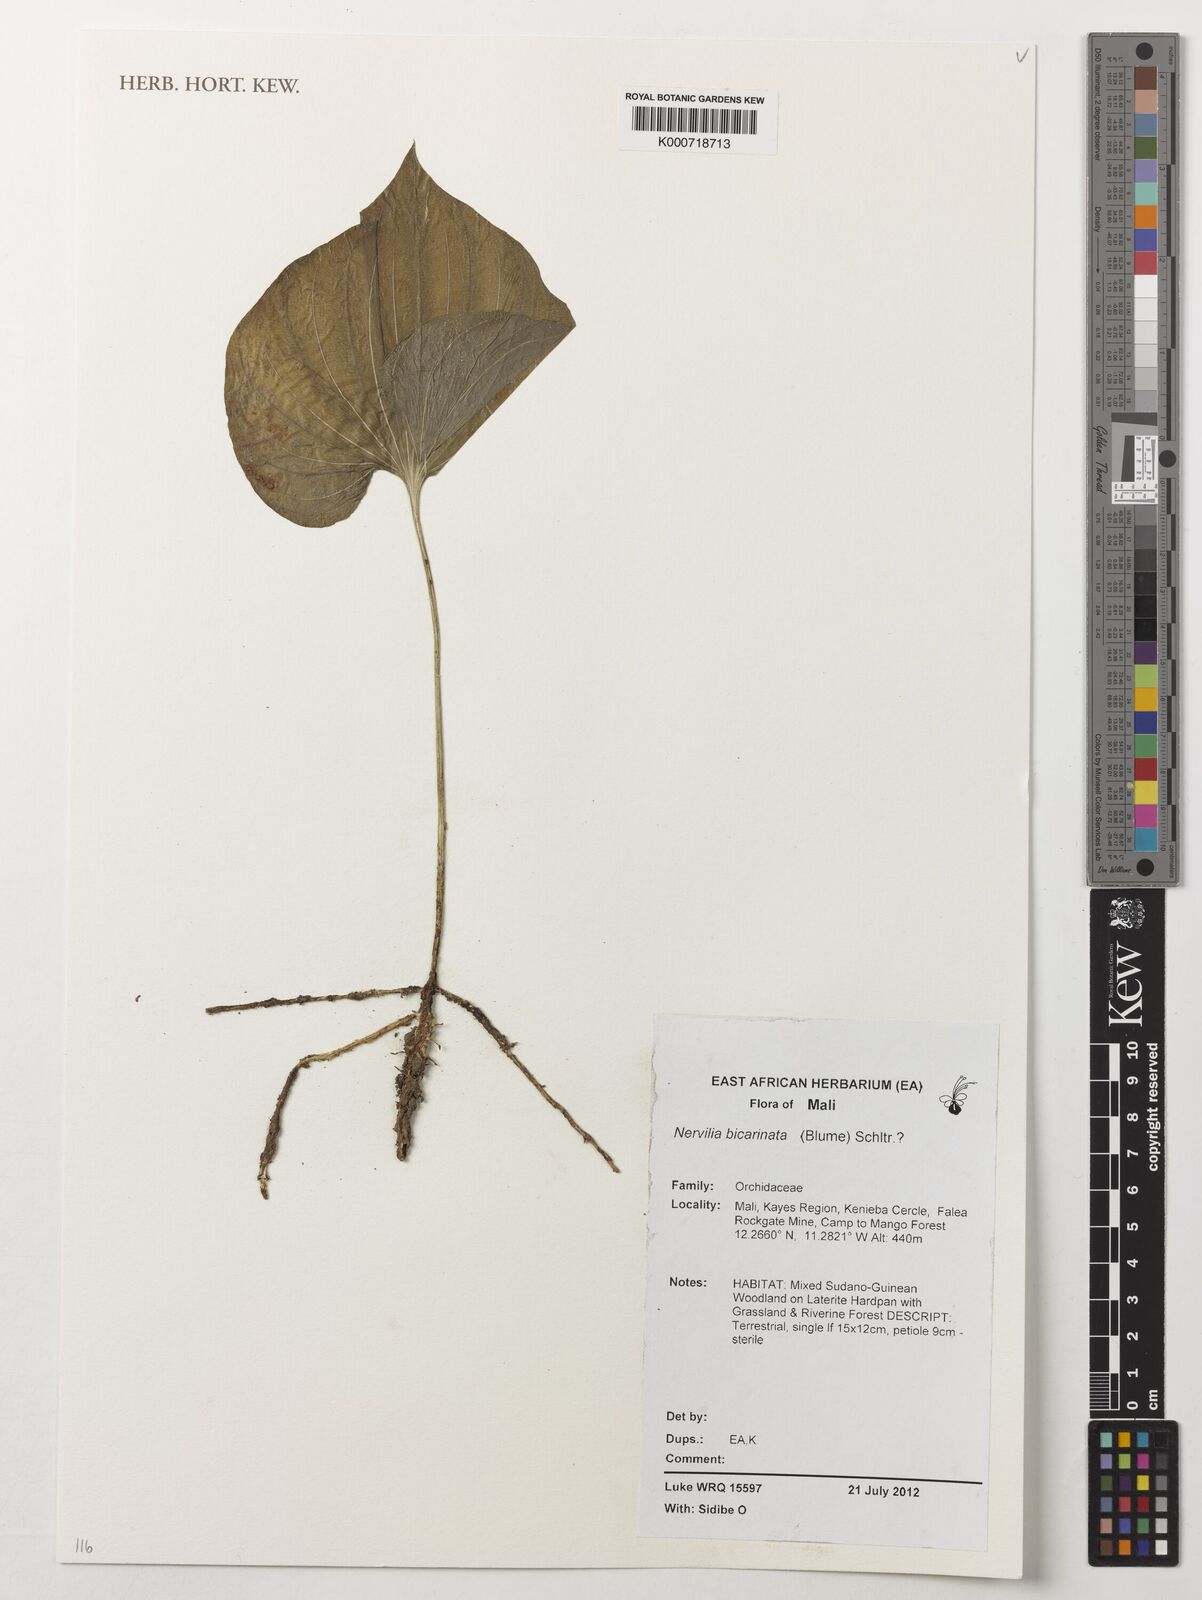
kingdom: Plantae
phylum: Tracheophyta
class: Liliopsida
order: Asparagales
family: Orchidaceae
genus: Nervilia
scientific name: Nervilia bicarinata
